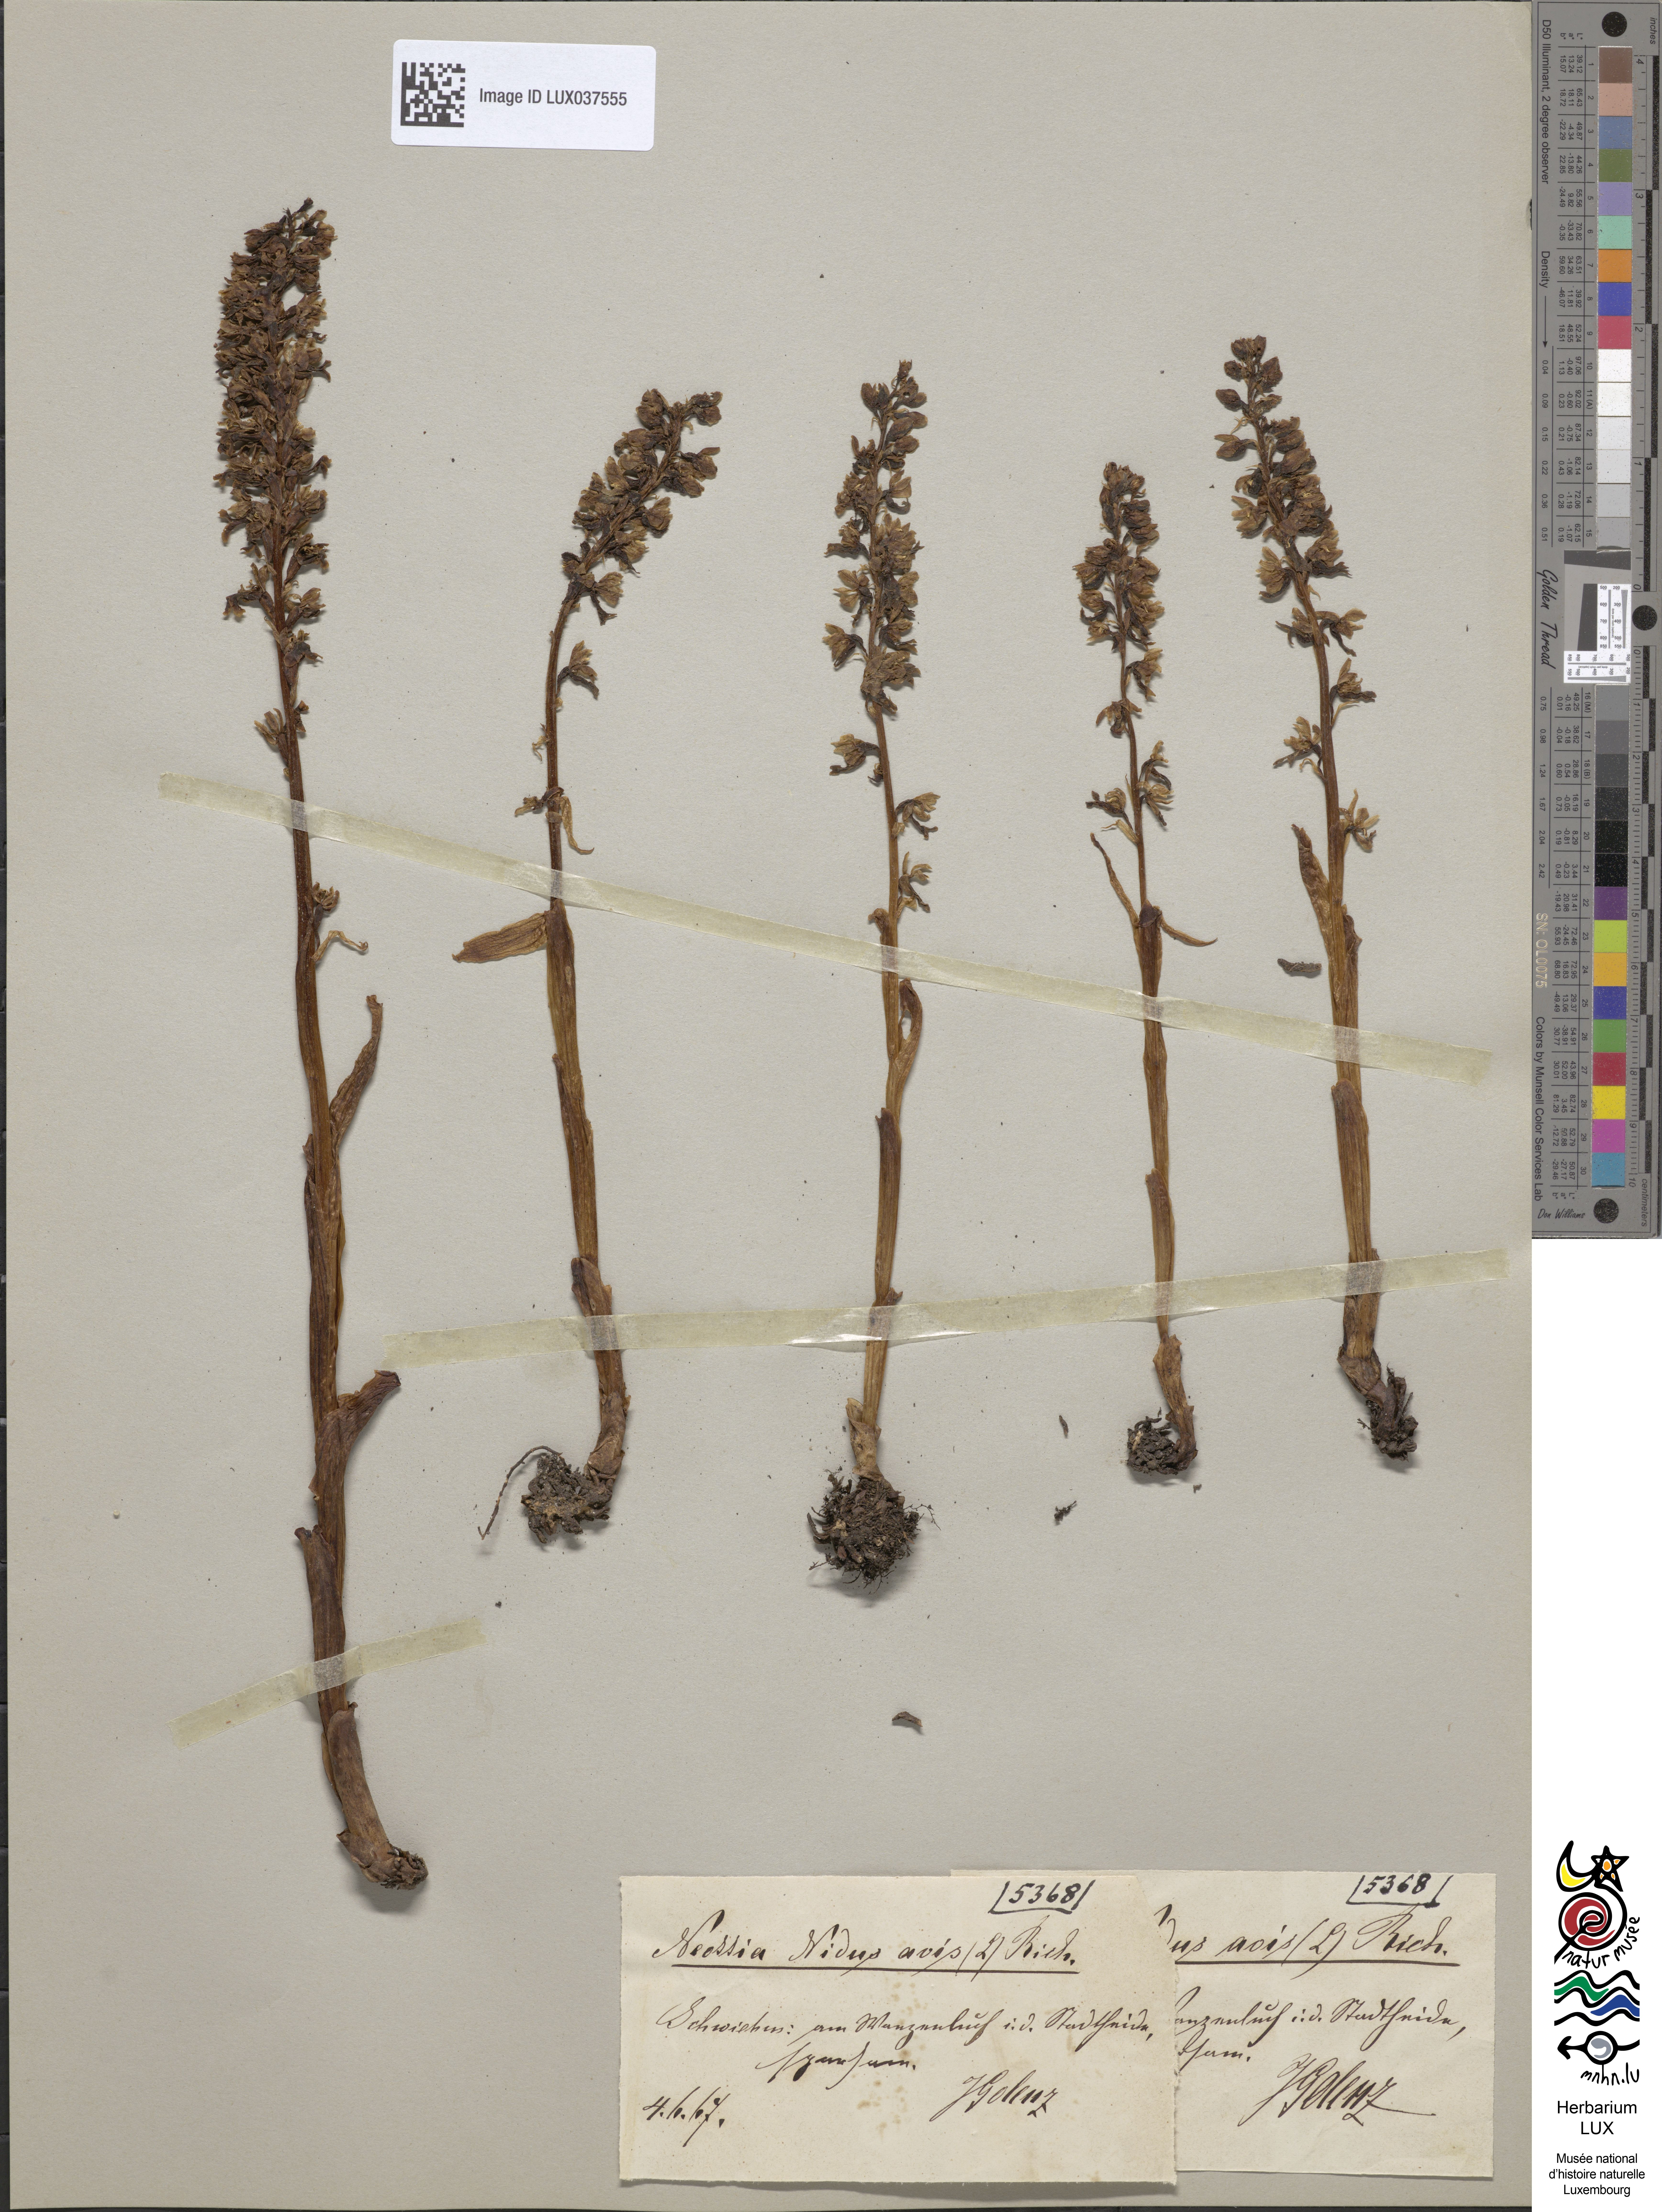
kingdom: Plantae
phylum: Tracheophyta
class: Liliopsida
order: Asparagales
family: Orchidaceae
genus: Neottia
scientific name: Neottia nidus-avis
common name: Bird's-nest orchid
